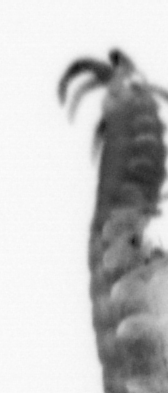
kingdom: Animalia
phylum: Annelida
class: Polychaeta
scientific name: Polychaeta
